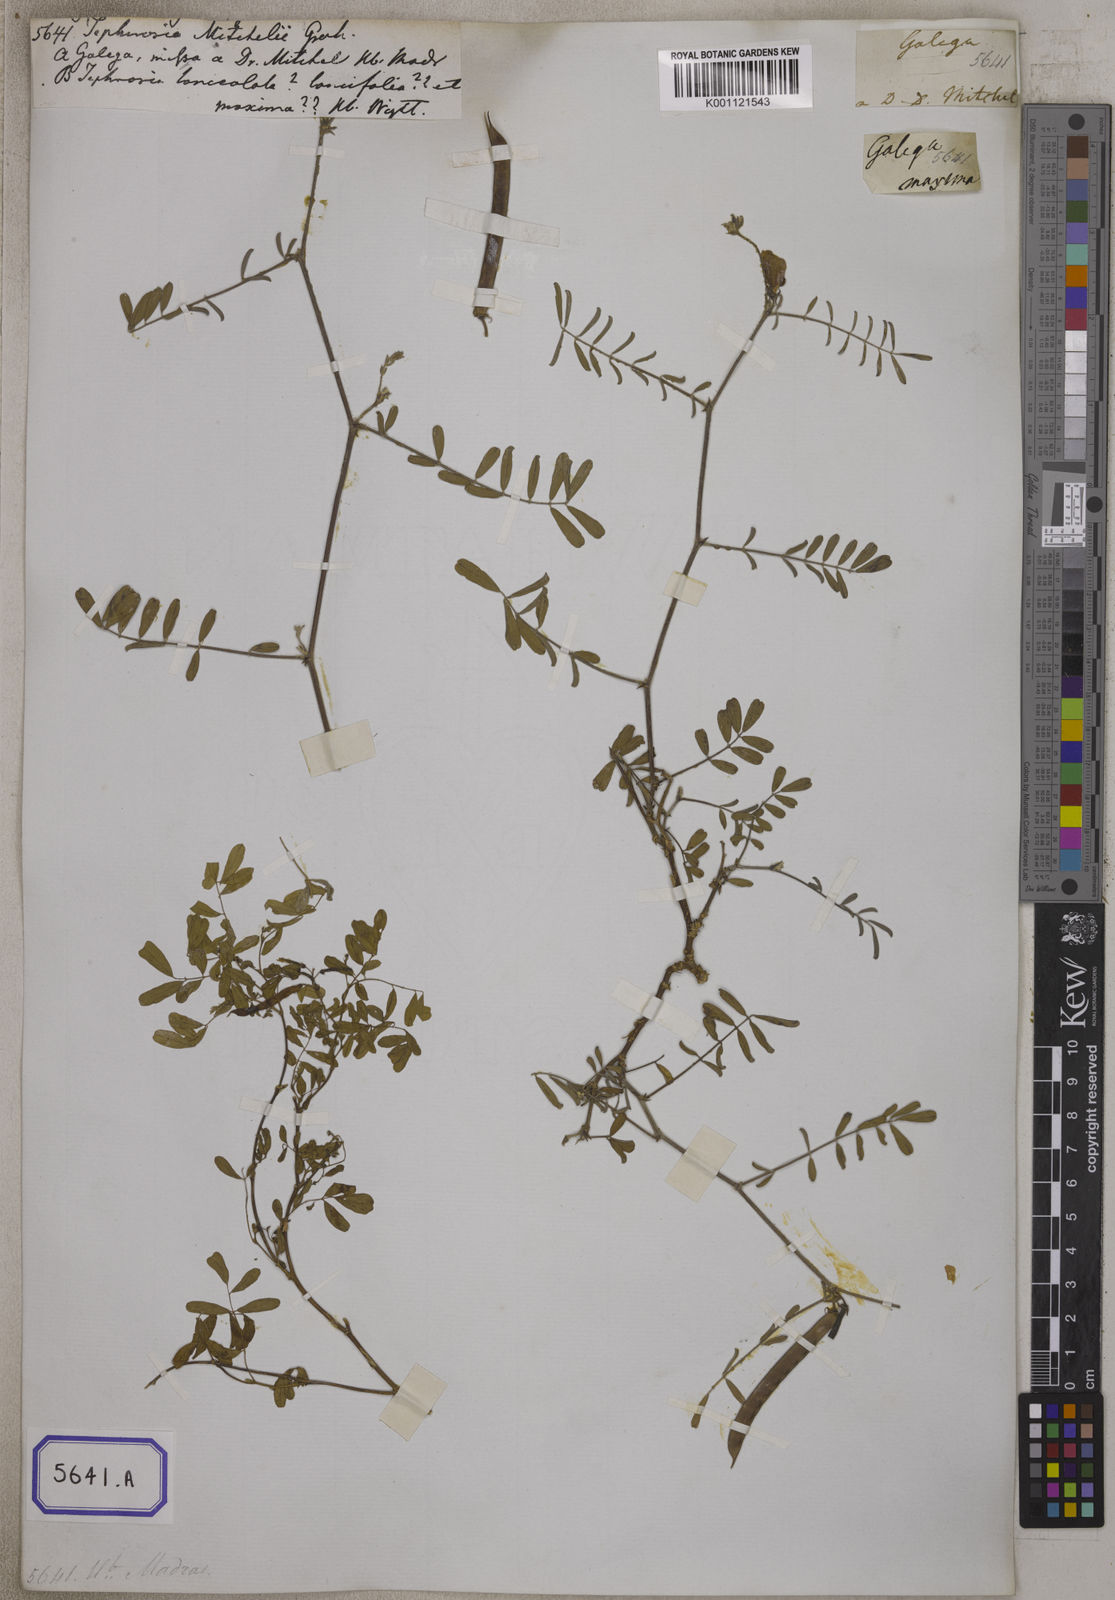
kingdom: Plantae
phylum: Tracheophyta
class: Magnoliopsida
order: Fabales
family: Fabaceae
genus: Tephrosia
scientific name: Tephrosia purpurea
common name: Fishpoison
